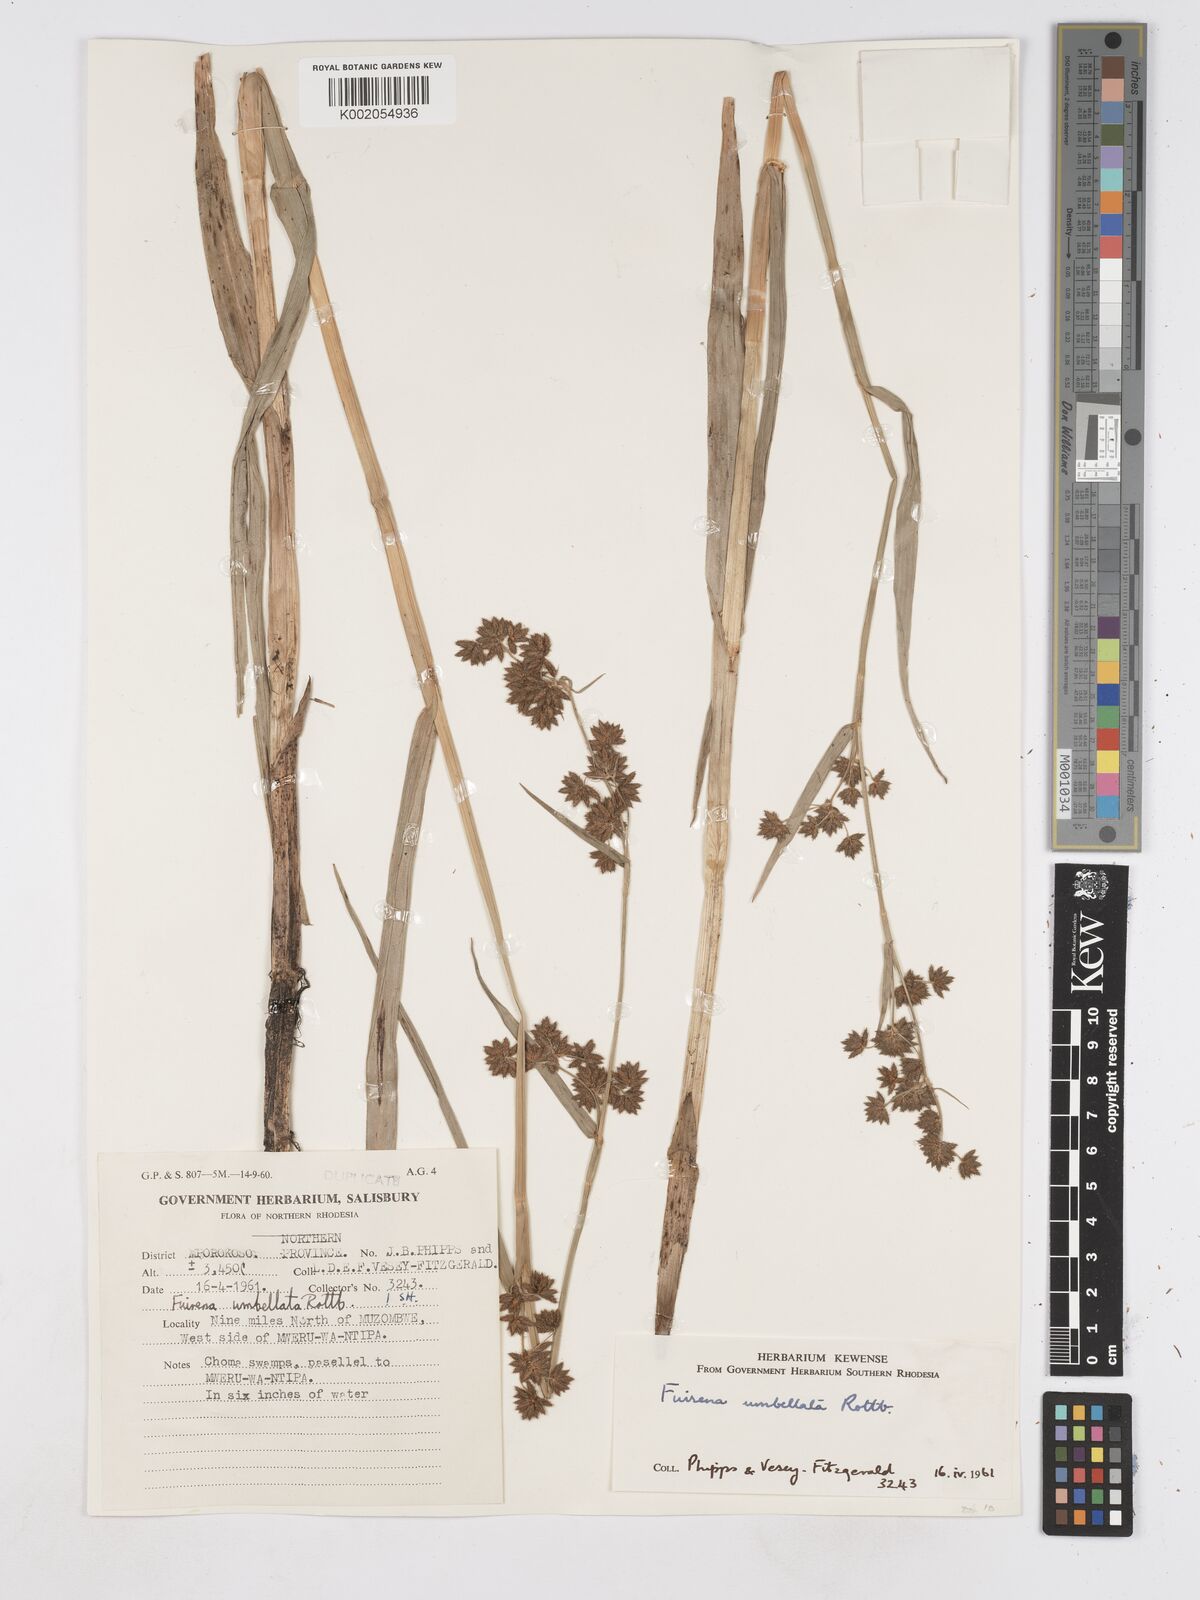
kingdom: Plantae
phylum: Tracheophyta
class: Liliopsida
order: Poales
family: Cyperaceae
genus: Fuirena
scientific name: Fuirena umbellata
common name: Yefen
